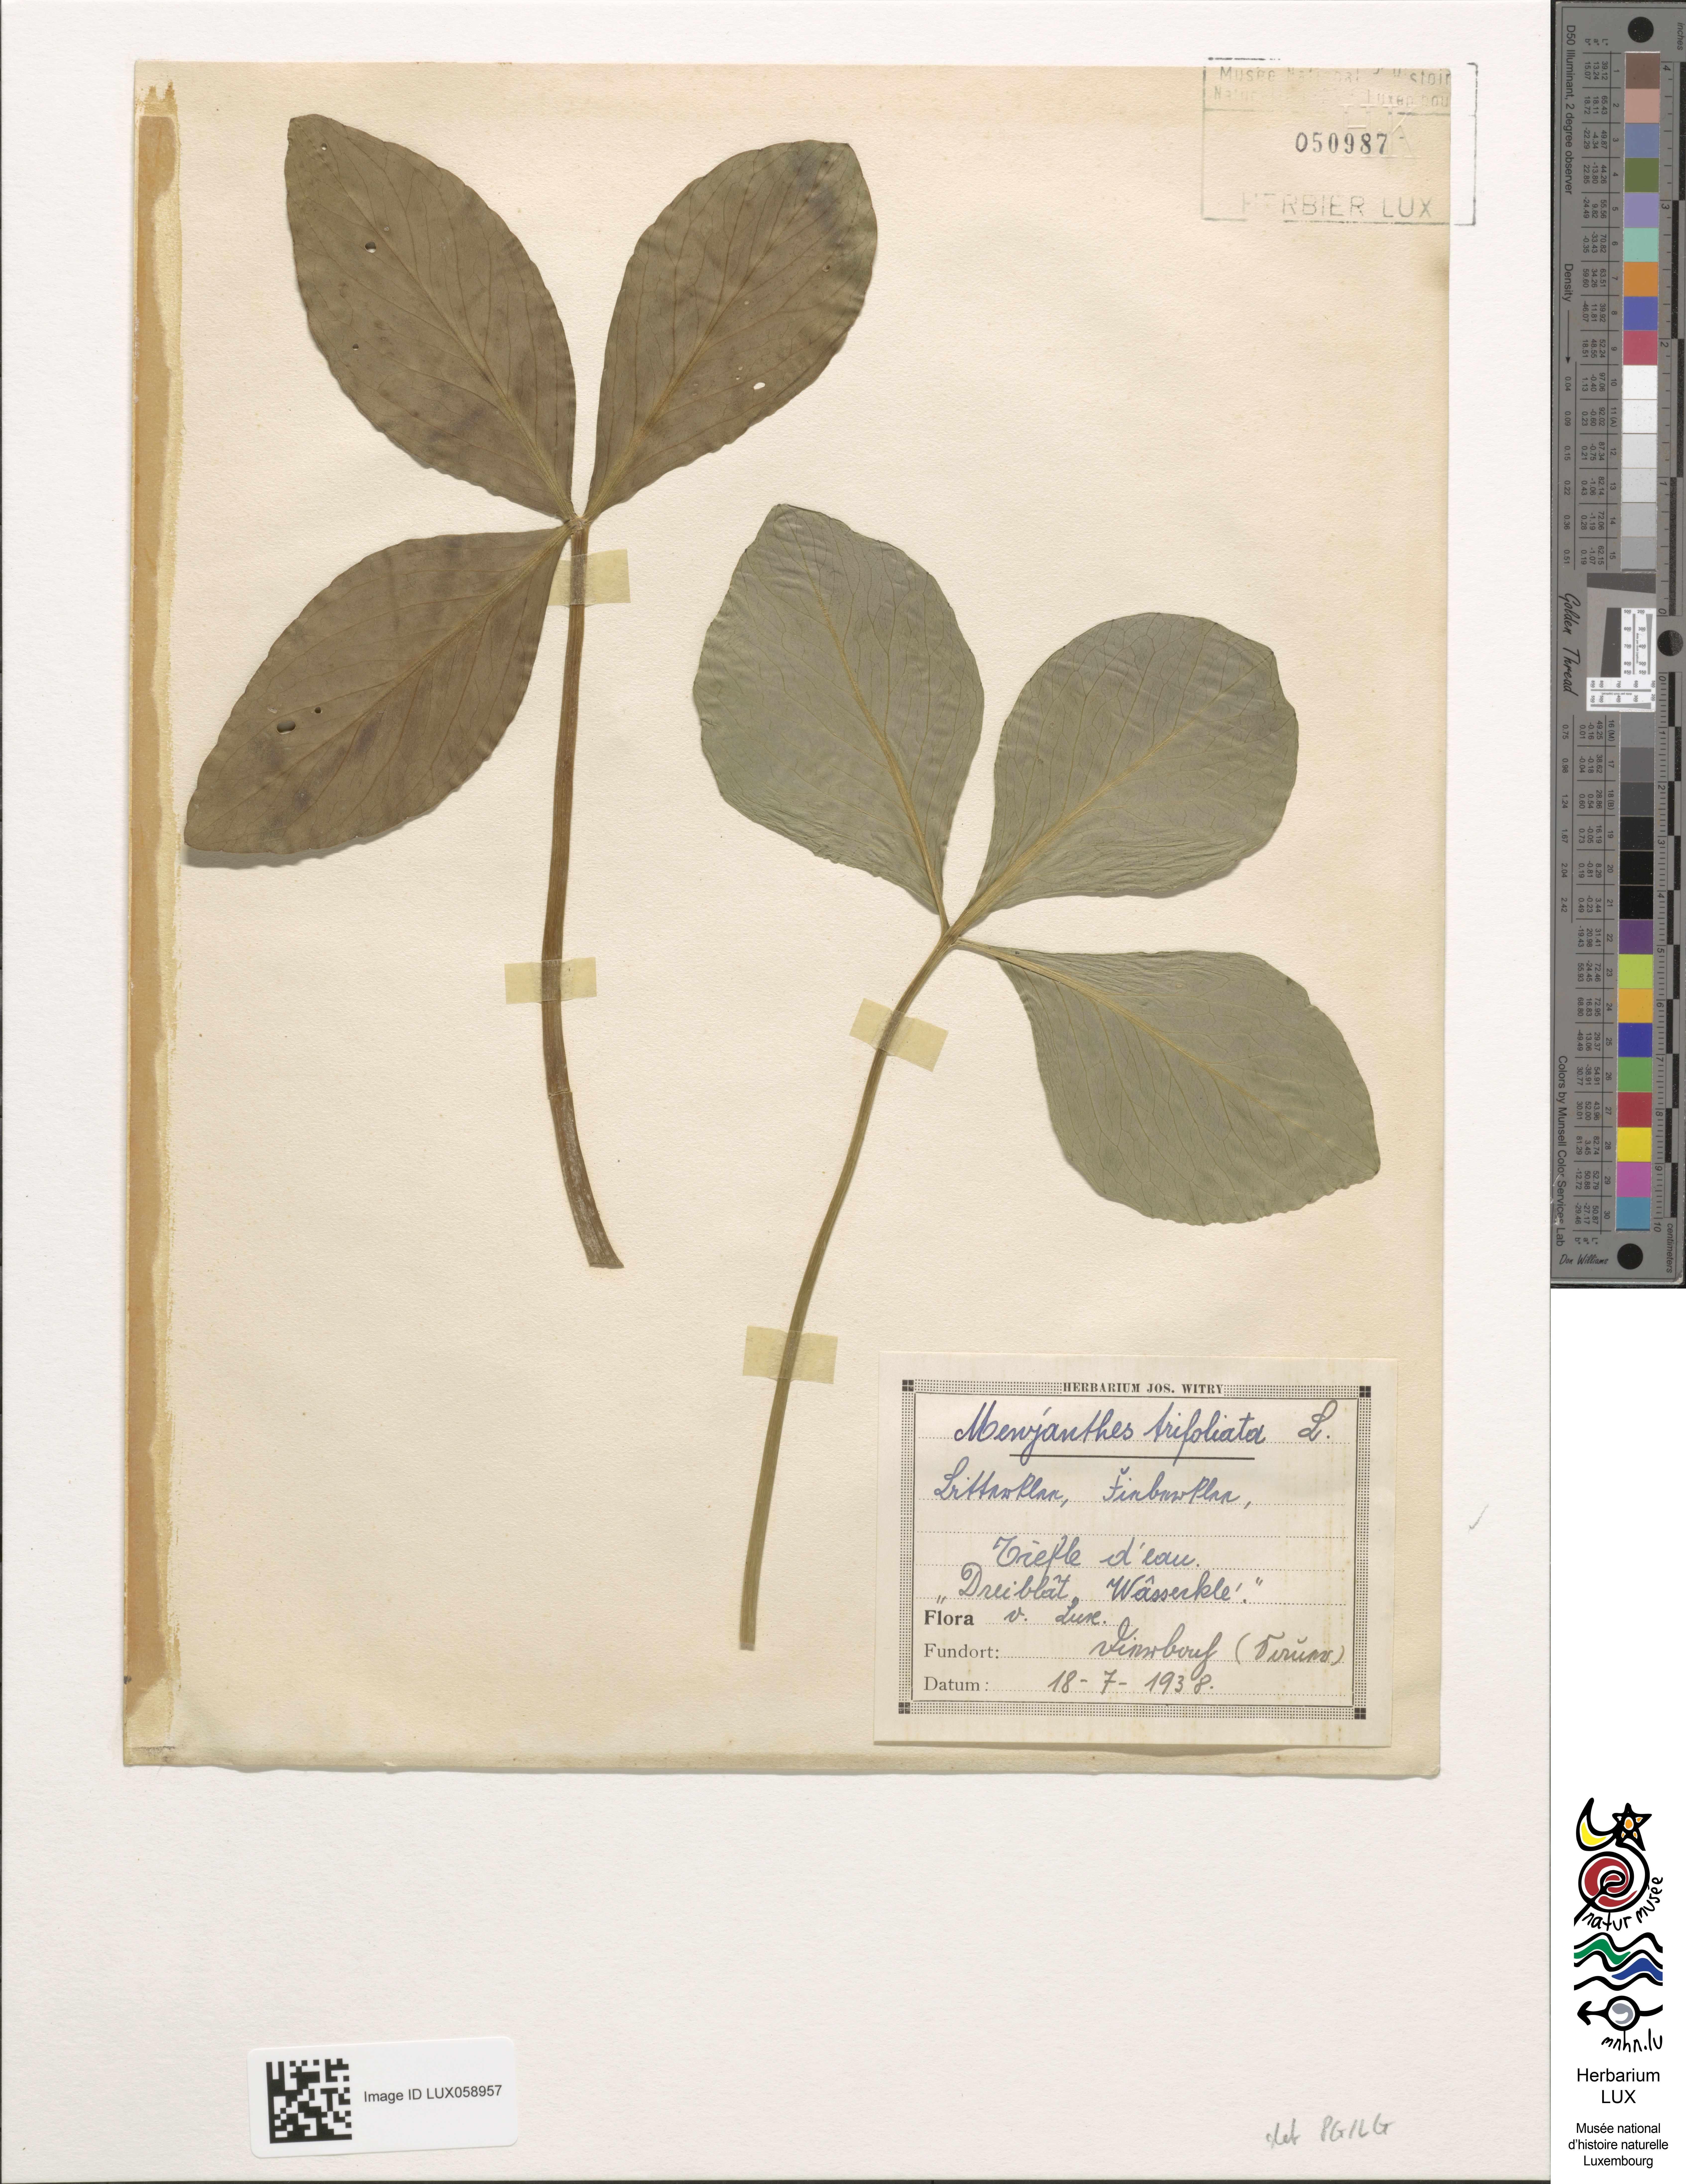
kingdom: Plantae
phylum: Tracheophyta
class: Magnoliopsida
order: Asterales
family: Menyanthaceae
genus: Menyanthes
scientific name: Menyanthes trifoliata
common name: Bogbean
